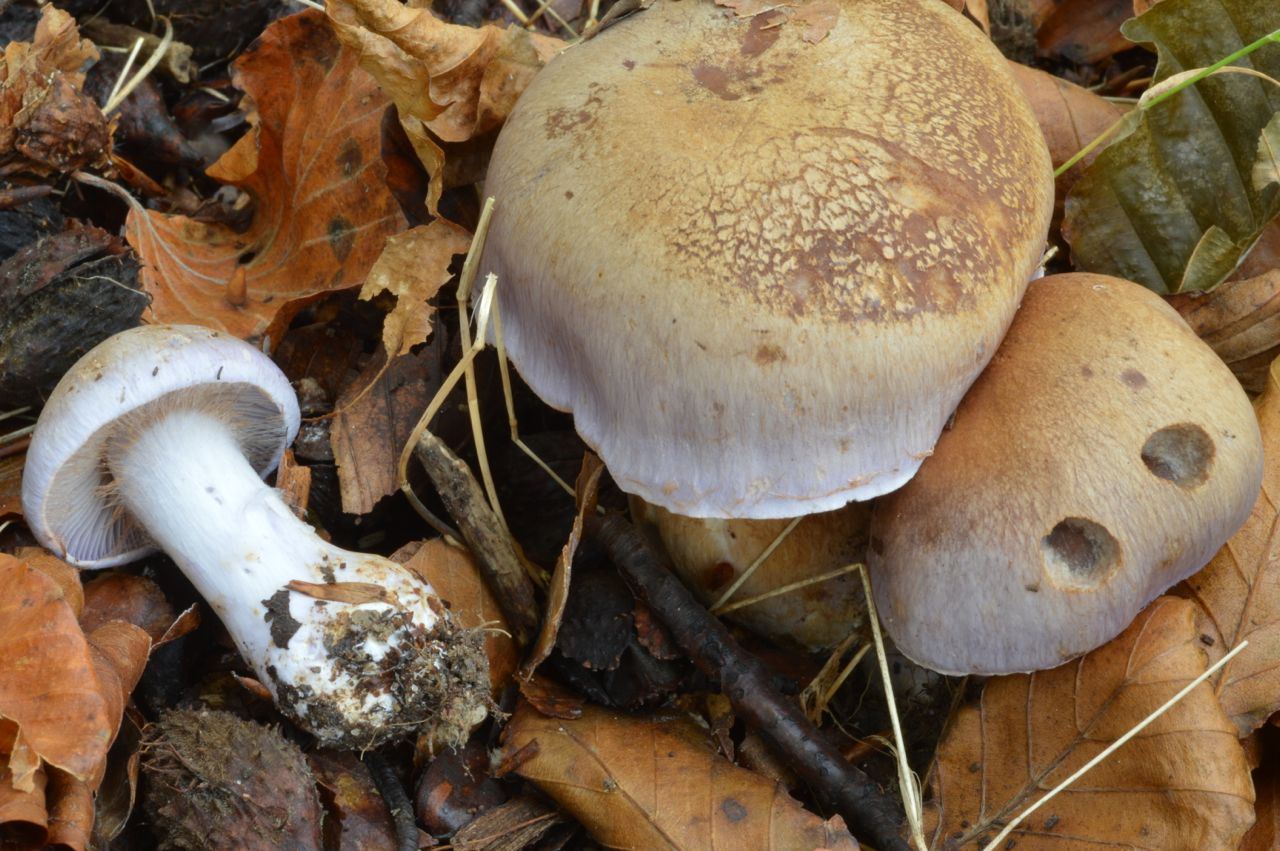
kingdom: Fungi
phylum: Basidiomycota
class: Agaricomycetes
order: Agaricales
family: Cortinariaceae
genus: Cortinarius
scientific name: Cortinarius largus
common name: violetrandet slørhat
